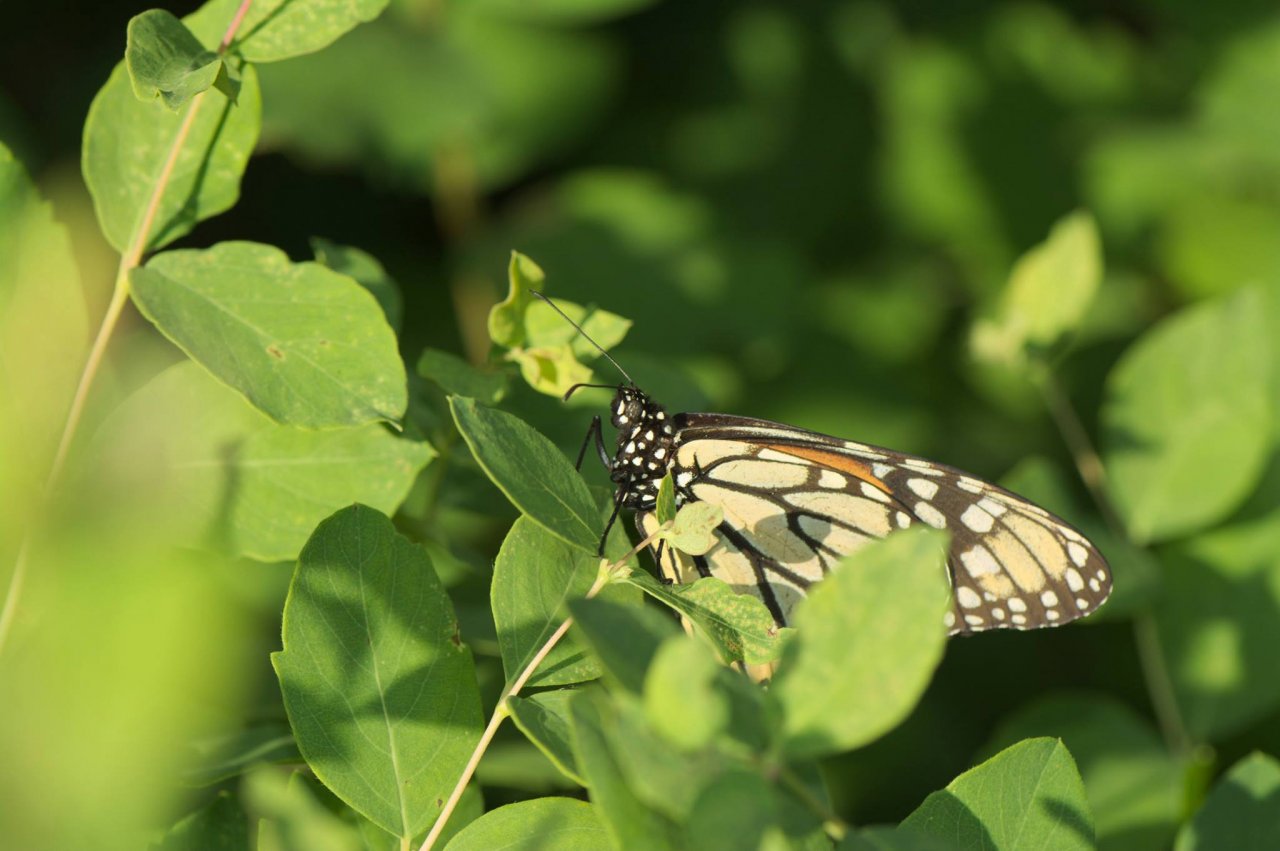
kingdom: Animalia
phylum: Arthropoda
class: Insecta
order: Lepidoptera
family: Nymphalidae
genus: Danaus
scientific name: Danaus plexippus
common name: Monarch
